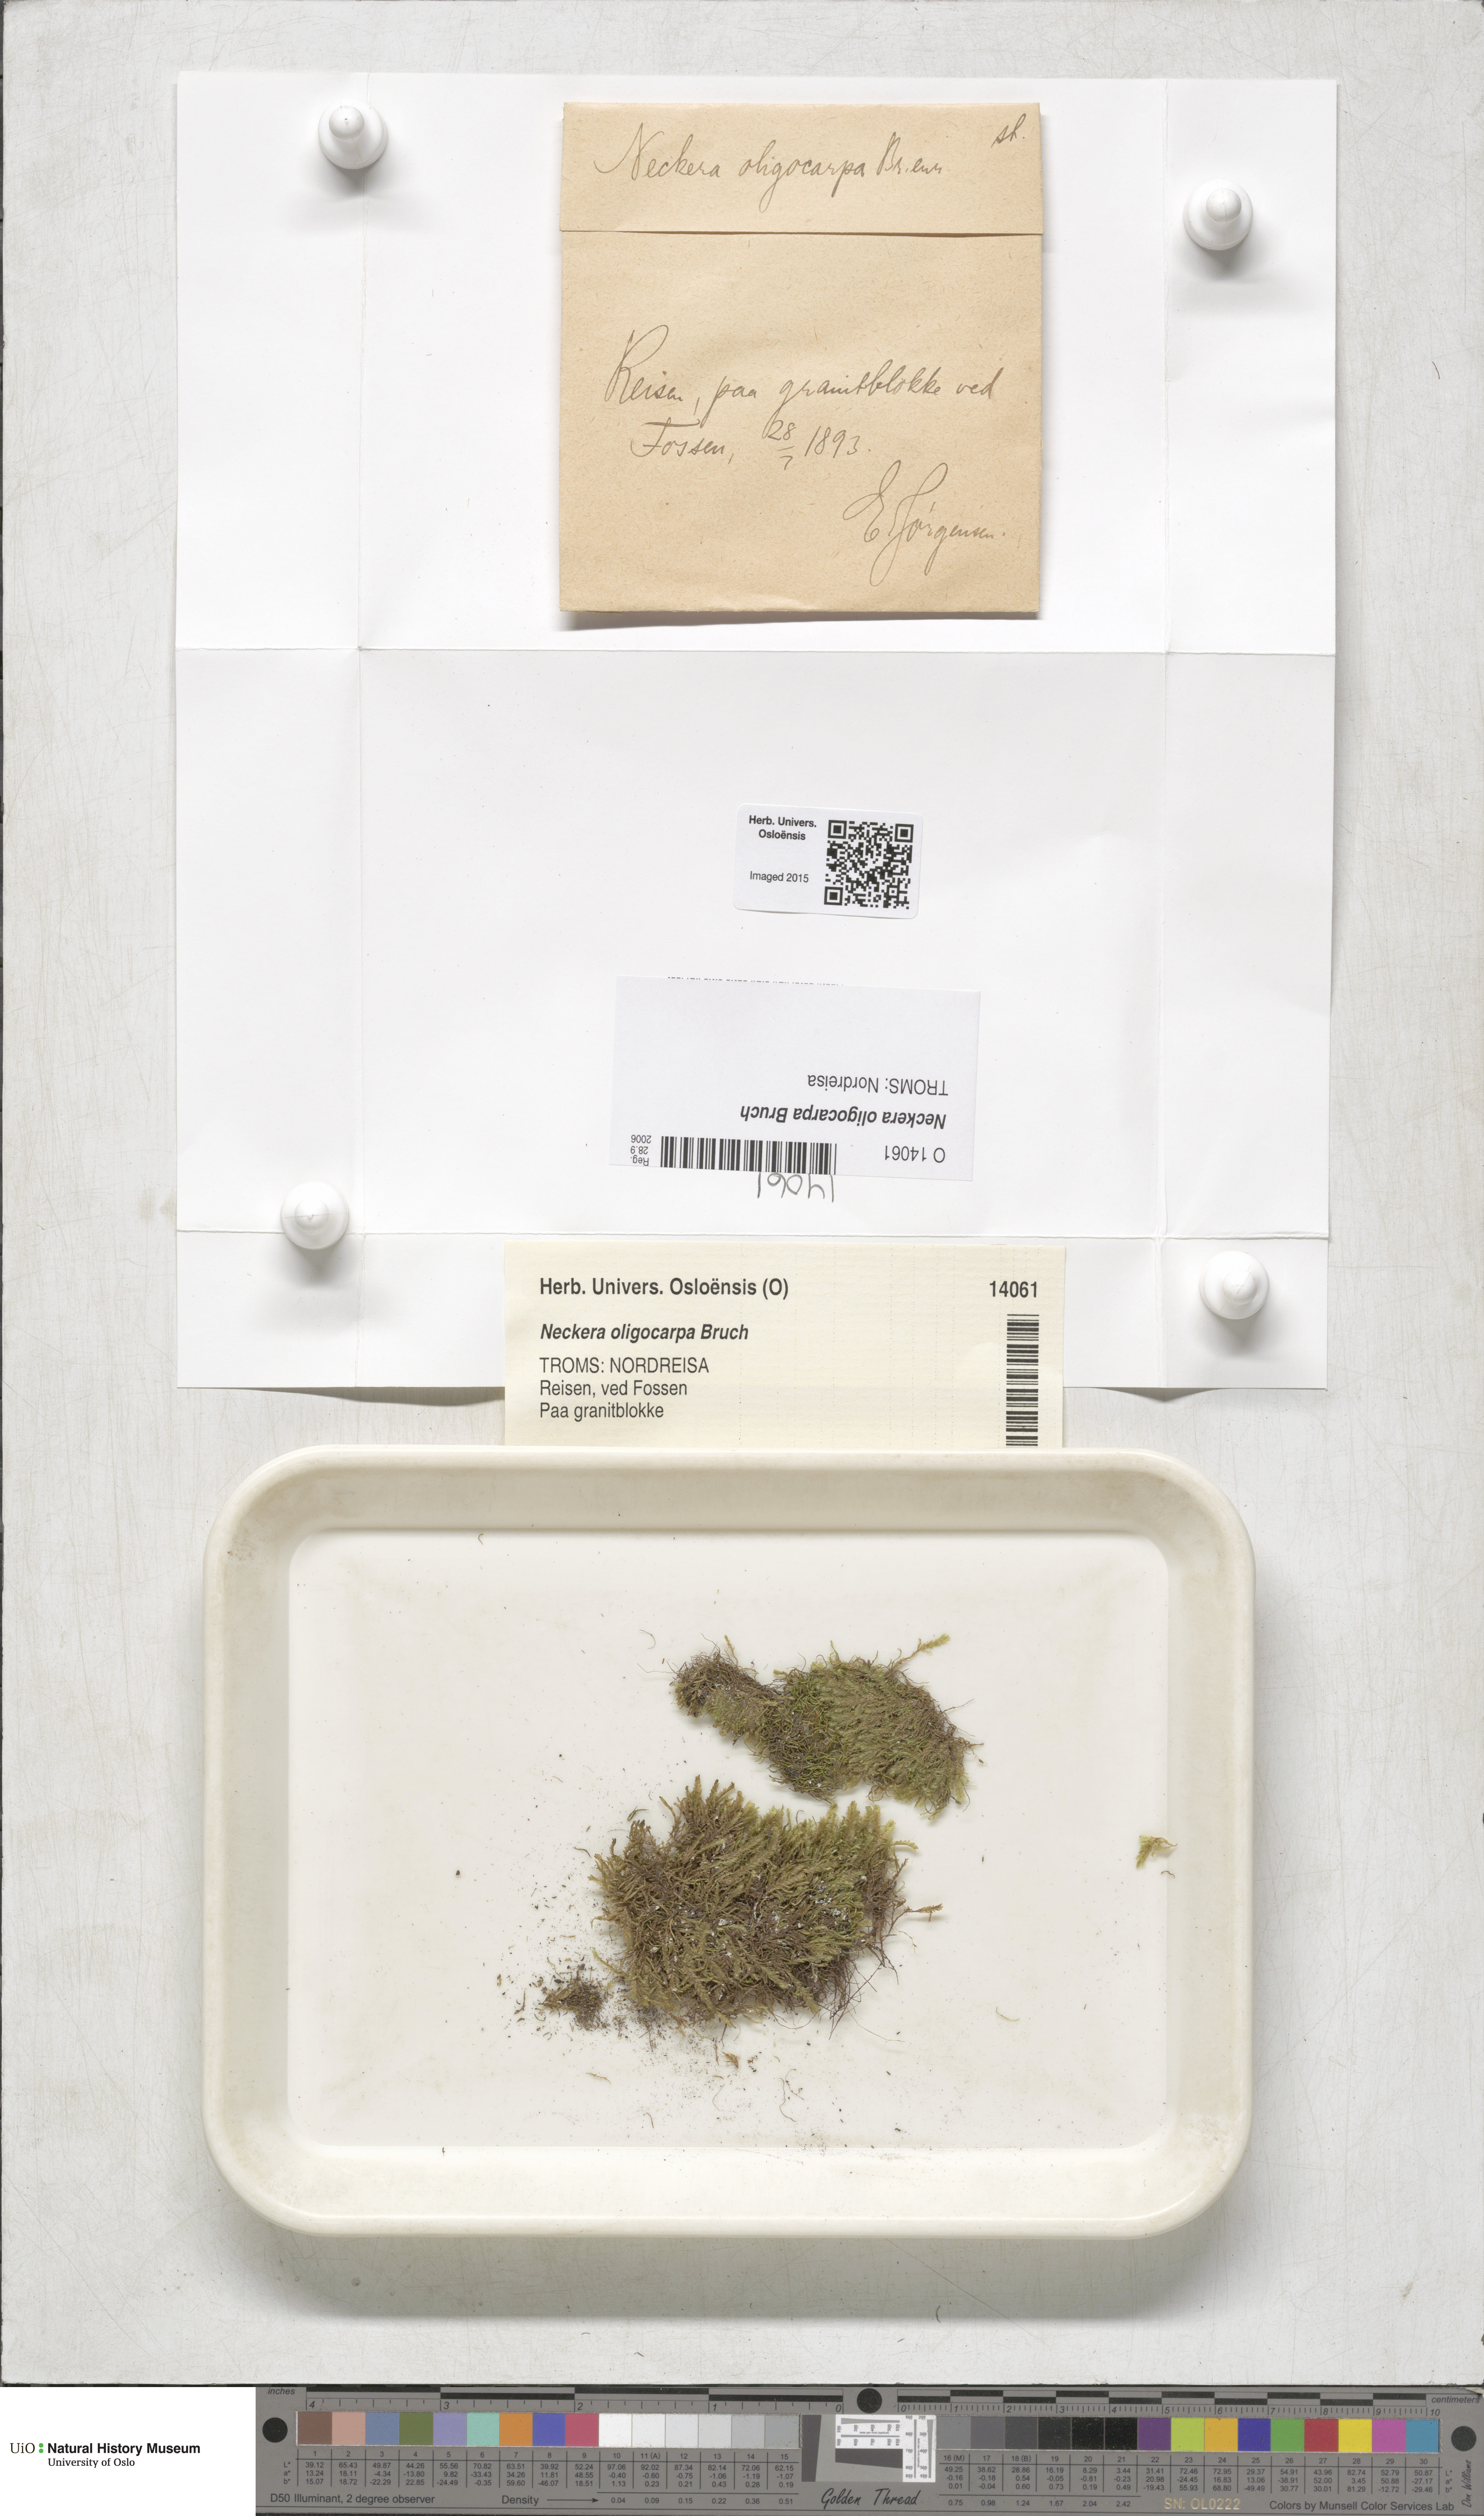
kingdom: Plantae
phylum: Bryophyta
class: Bryopsida
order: Hypnales
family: Neckeraceae
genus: Neckera
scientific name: Neckera oligocarpa
